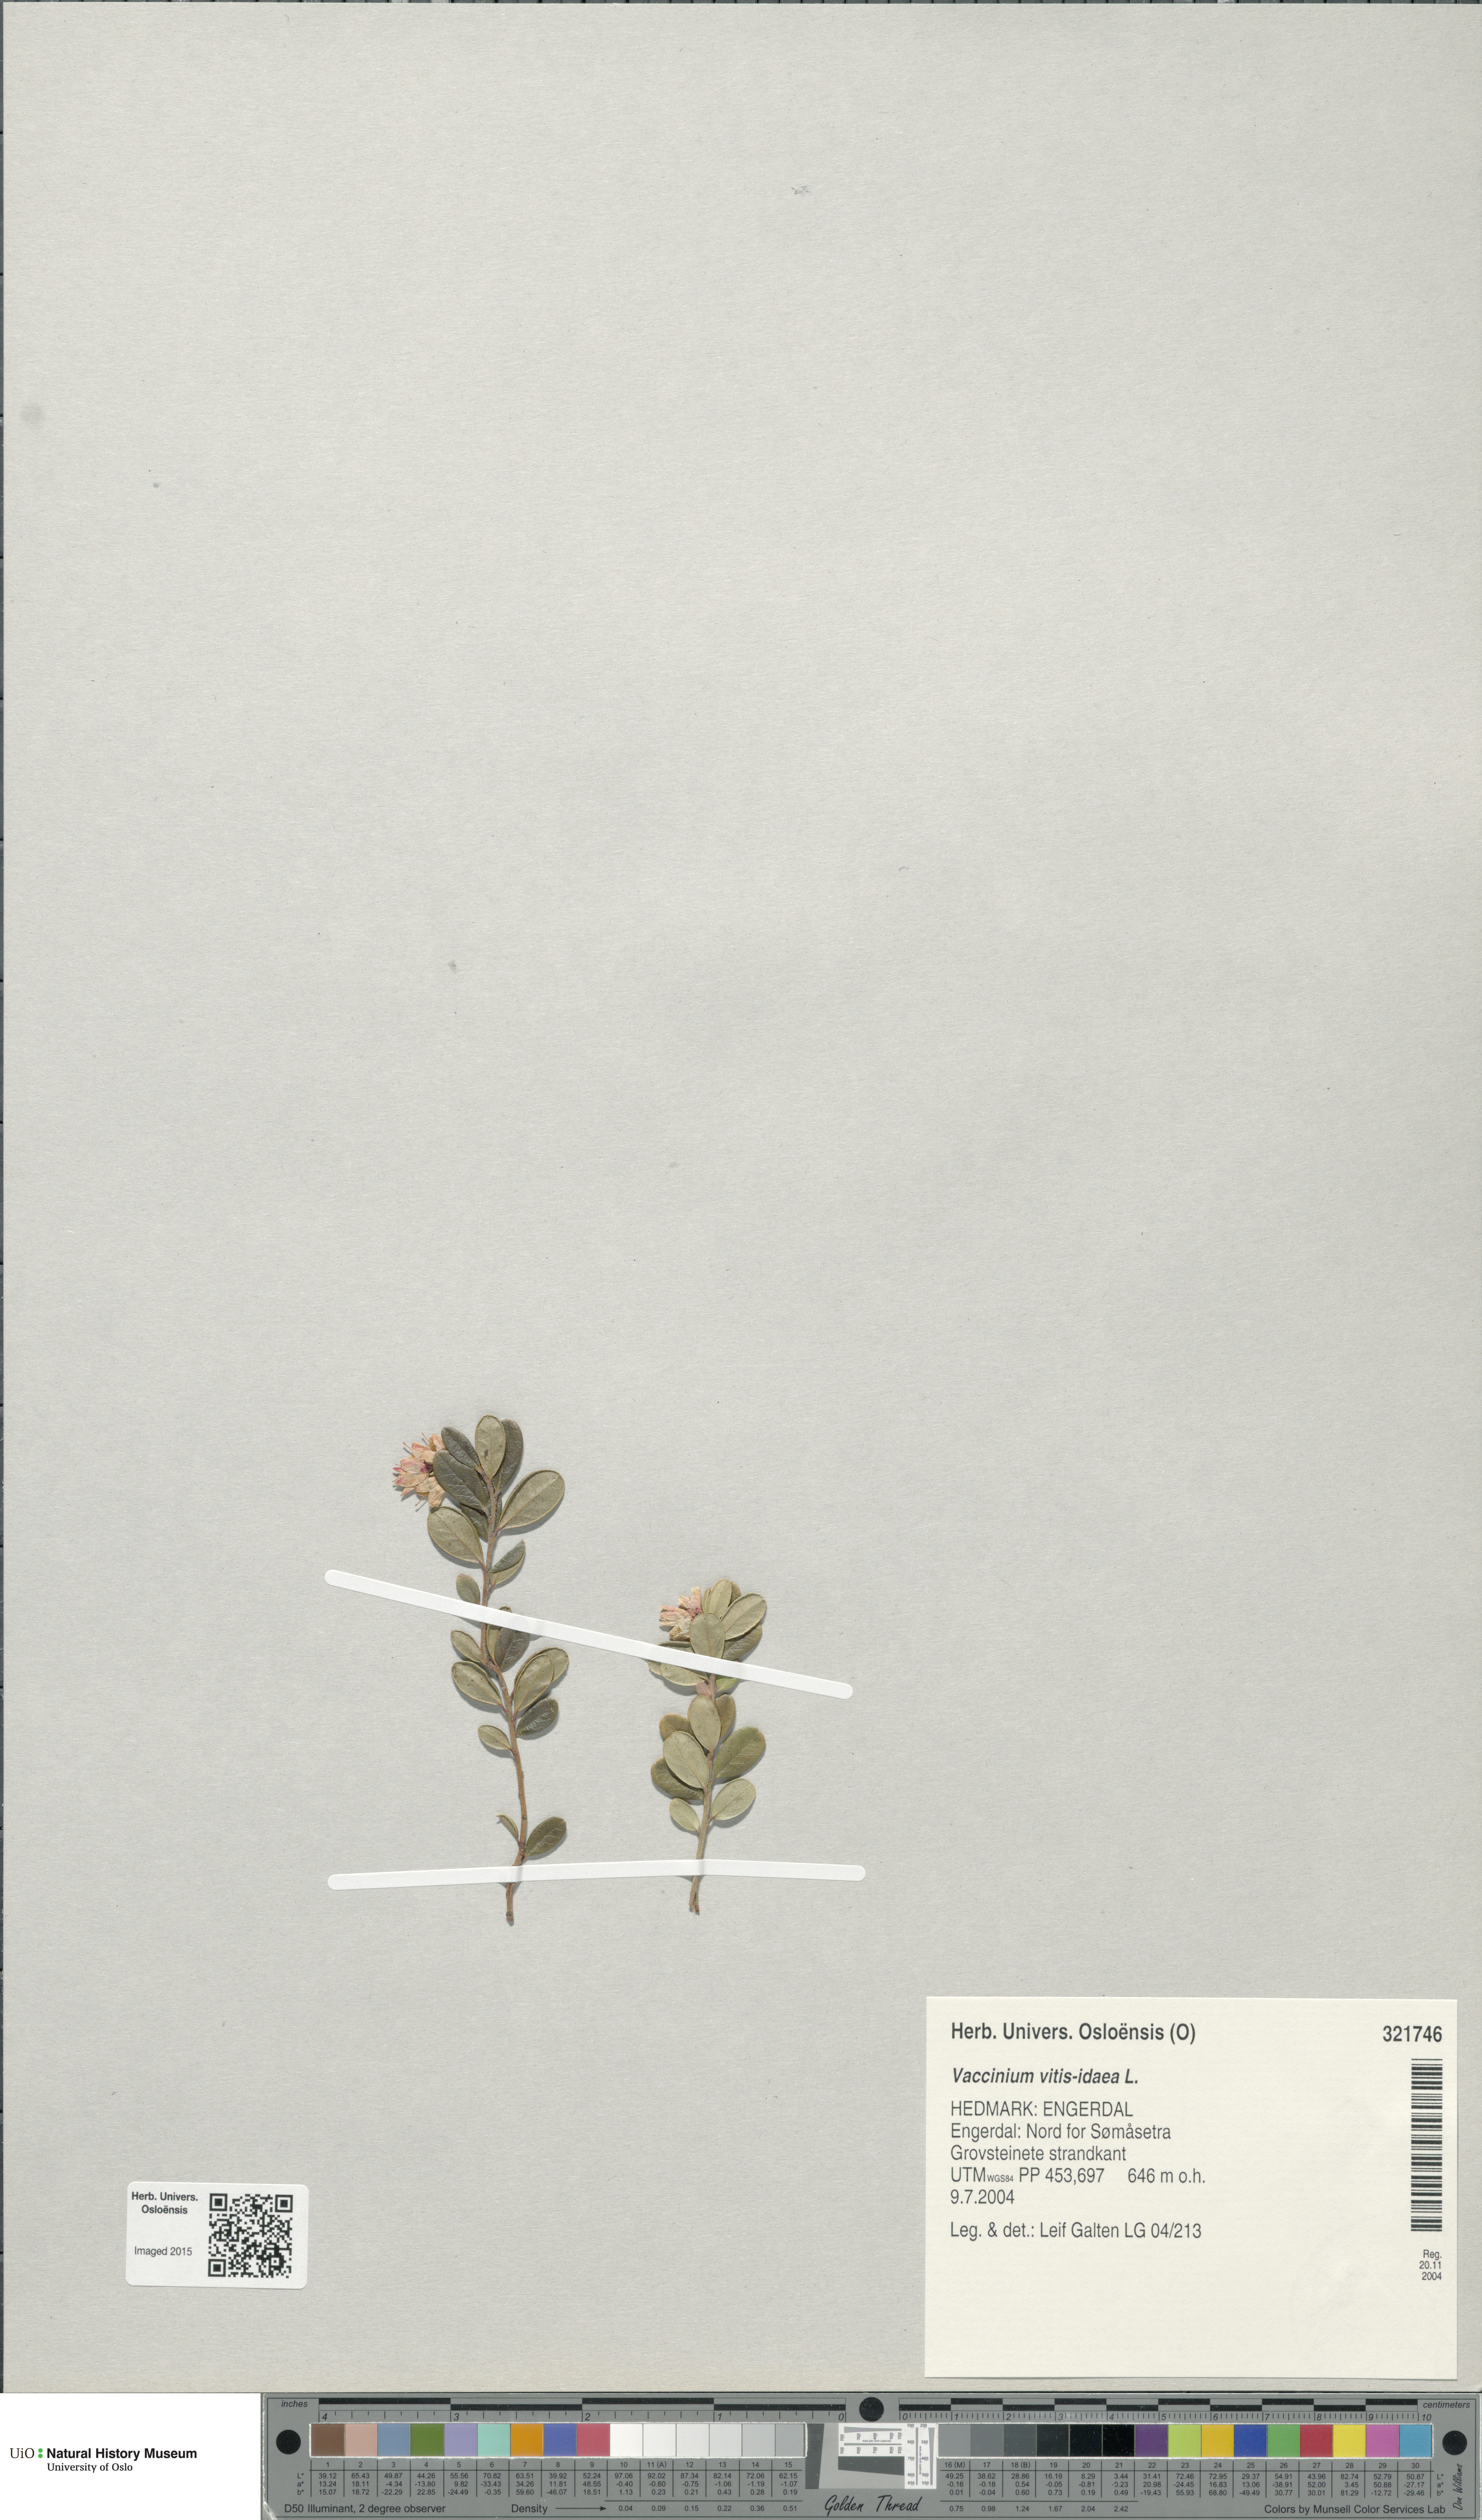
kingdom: Plantae
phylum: Tracheophyta
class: Magnoliopsida
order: Ericales
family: Ericaceae
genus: Vaccinium
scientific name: Vaccinium vitis-idaea
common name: Cowberry
